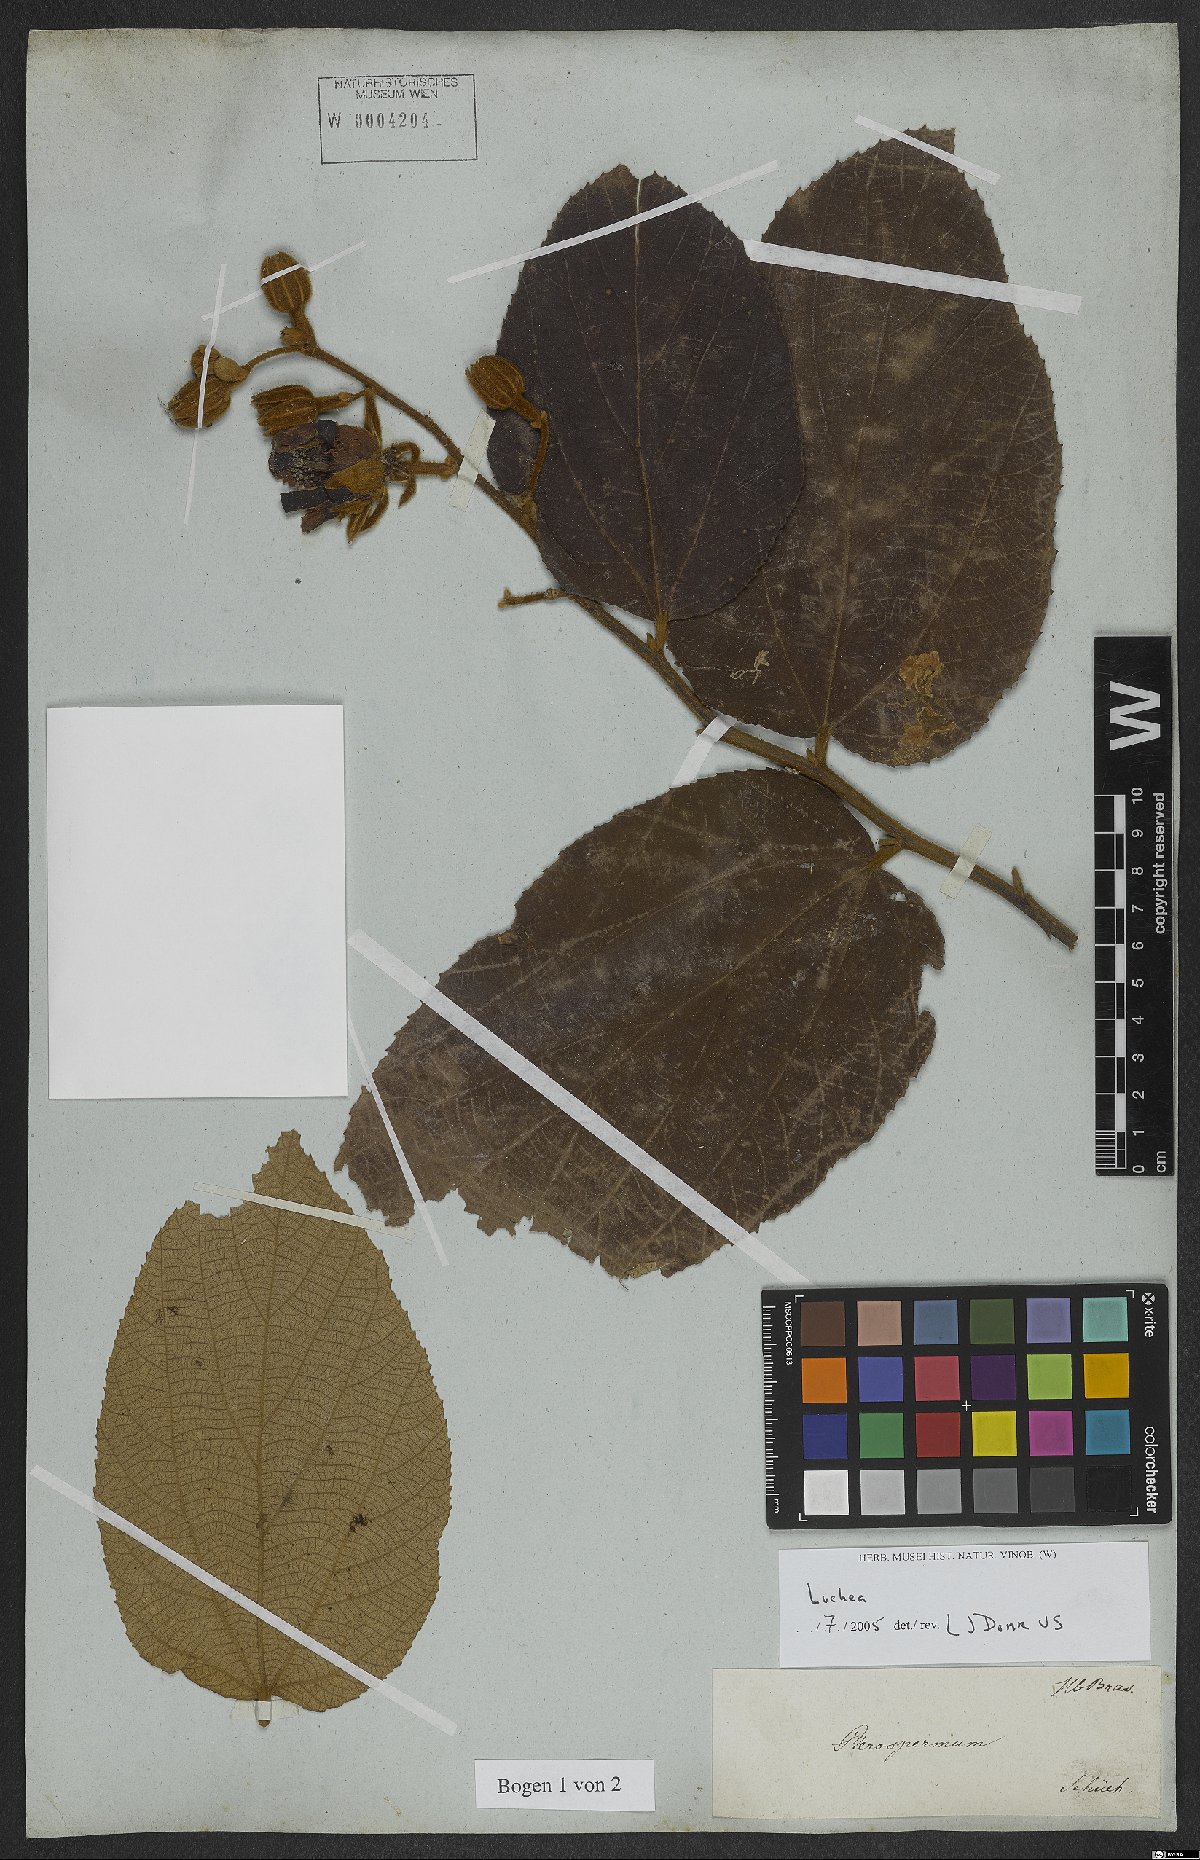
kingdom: Plantae
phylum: Tracheophyta
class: Magnoliopsida
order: Malvales
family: Malvaceae
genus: Luehea
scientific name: Luehea
